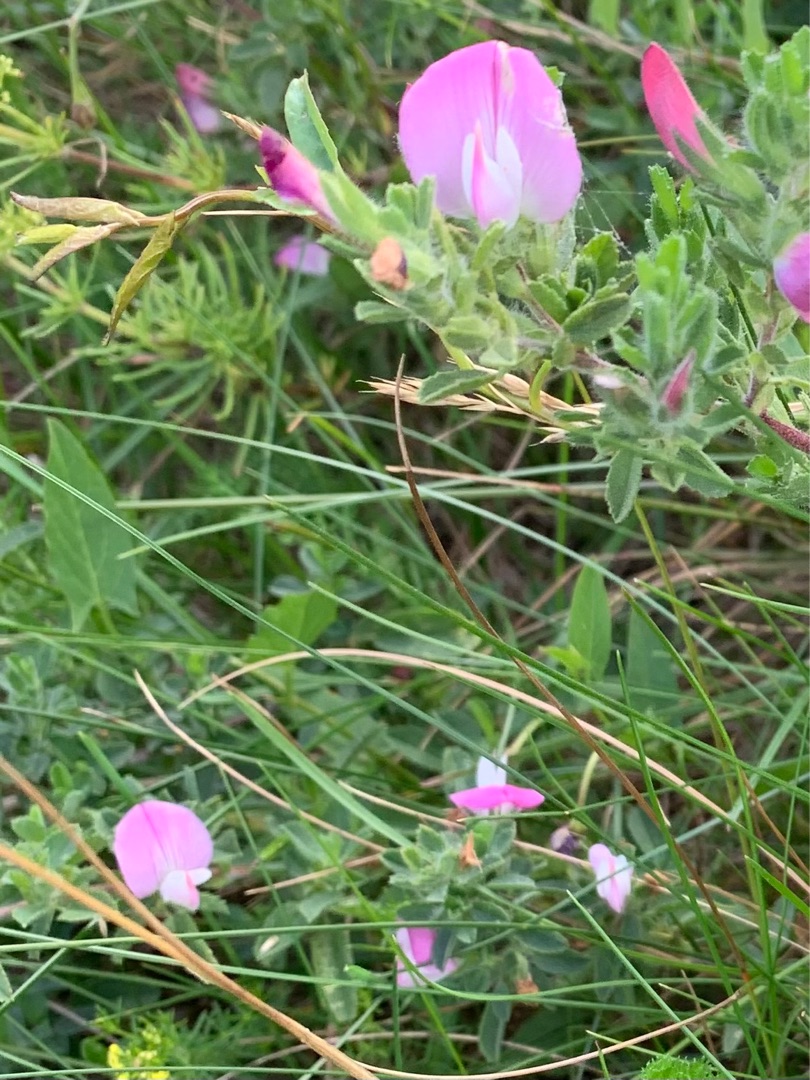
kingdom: Plantae
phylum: Tracheophyta
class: Magnoliopsida
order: Fabales
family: Fabaceae
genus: Ononis
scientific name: Ononis spinosa
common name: Mark-krageklo
